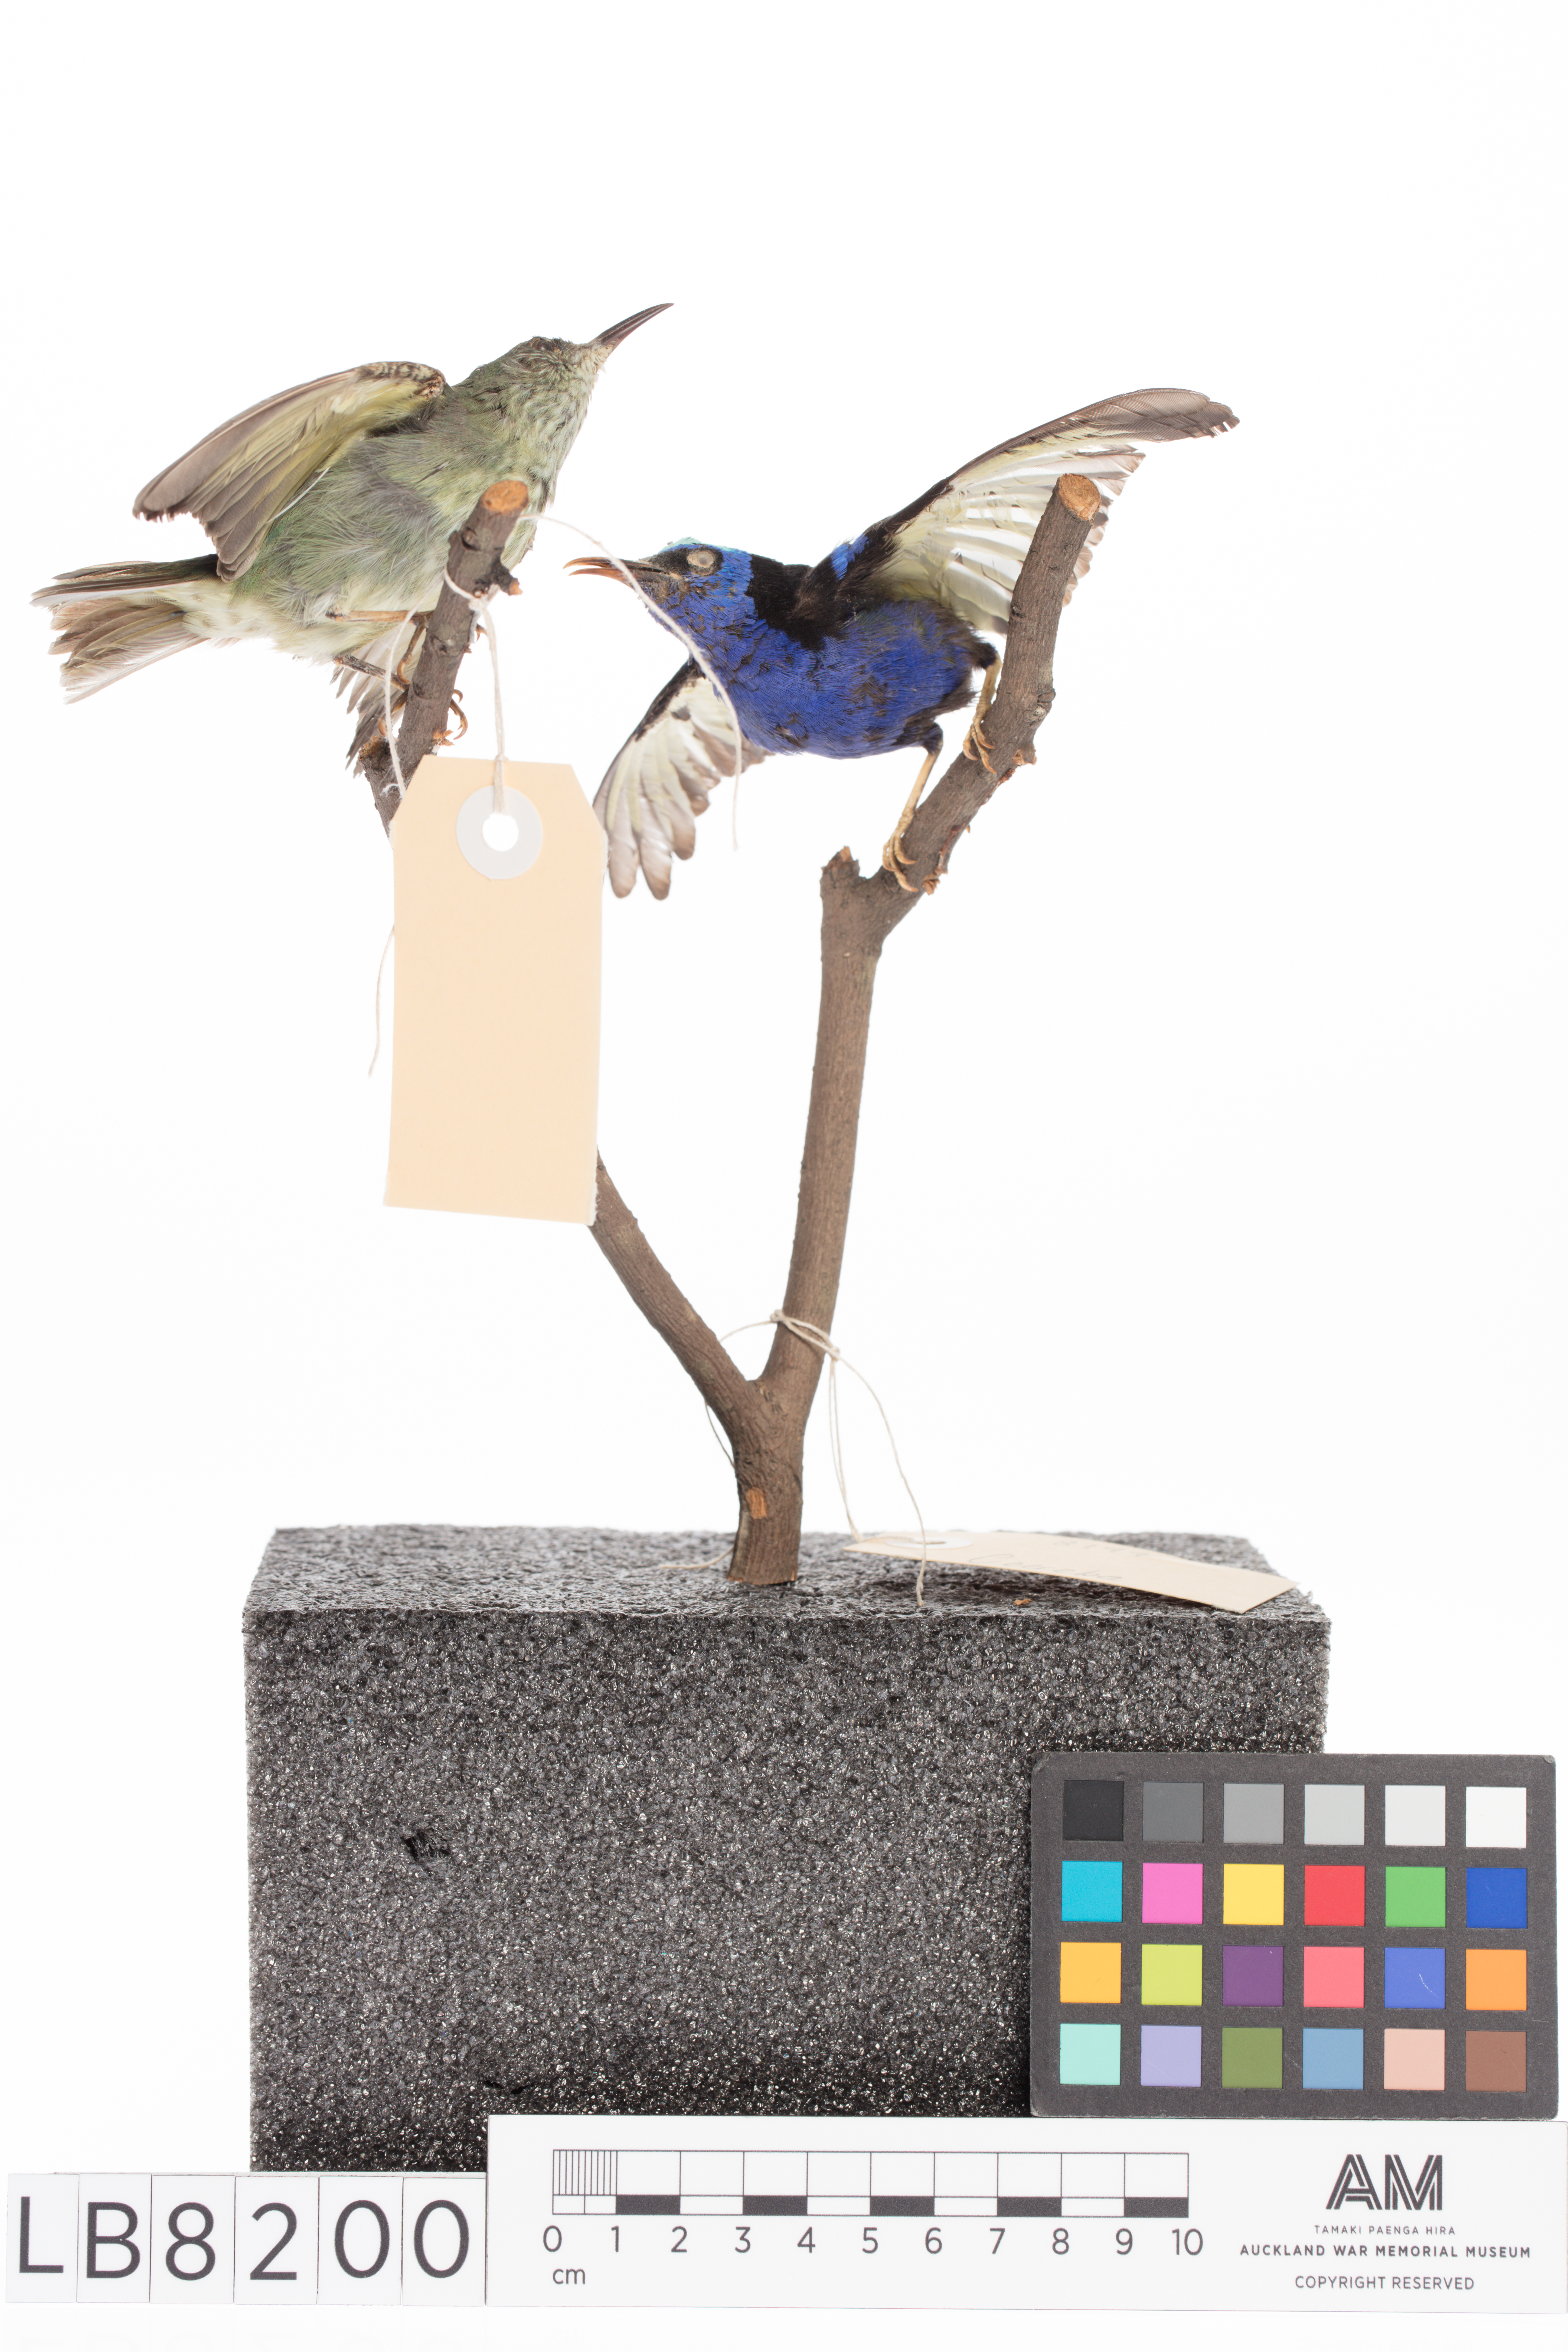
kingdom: Animalia
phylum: Chordata
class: Aves
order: Passeriformes
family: Thraupidae
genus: Coereba
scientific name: Coereba flaveola
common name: Bananaquit
